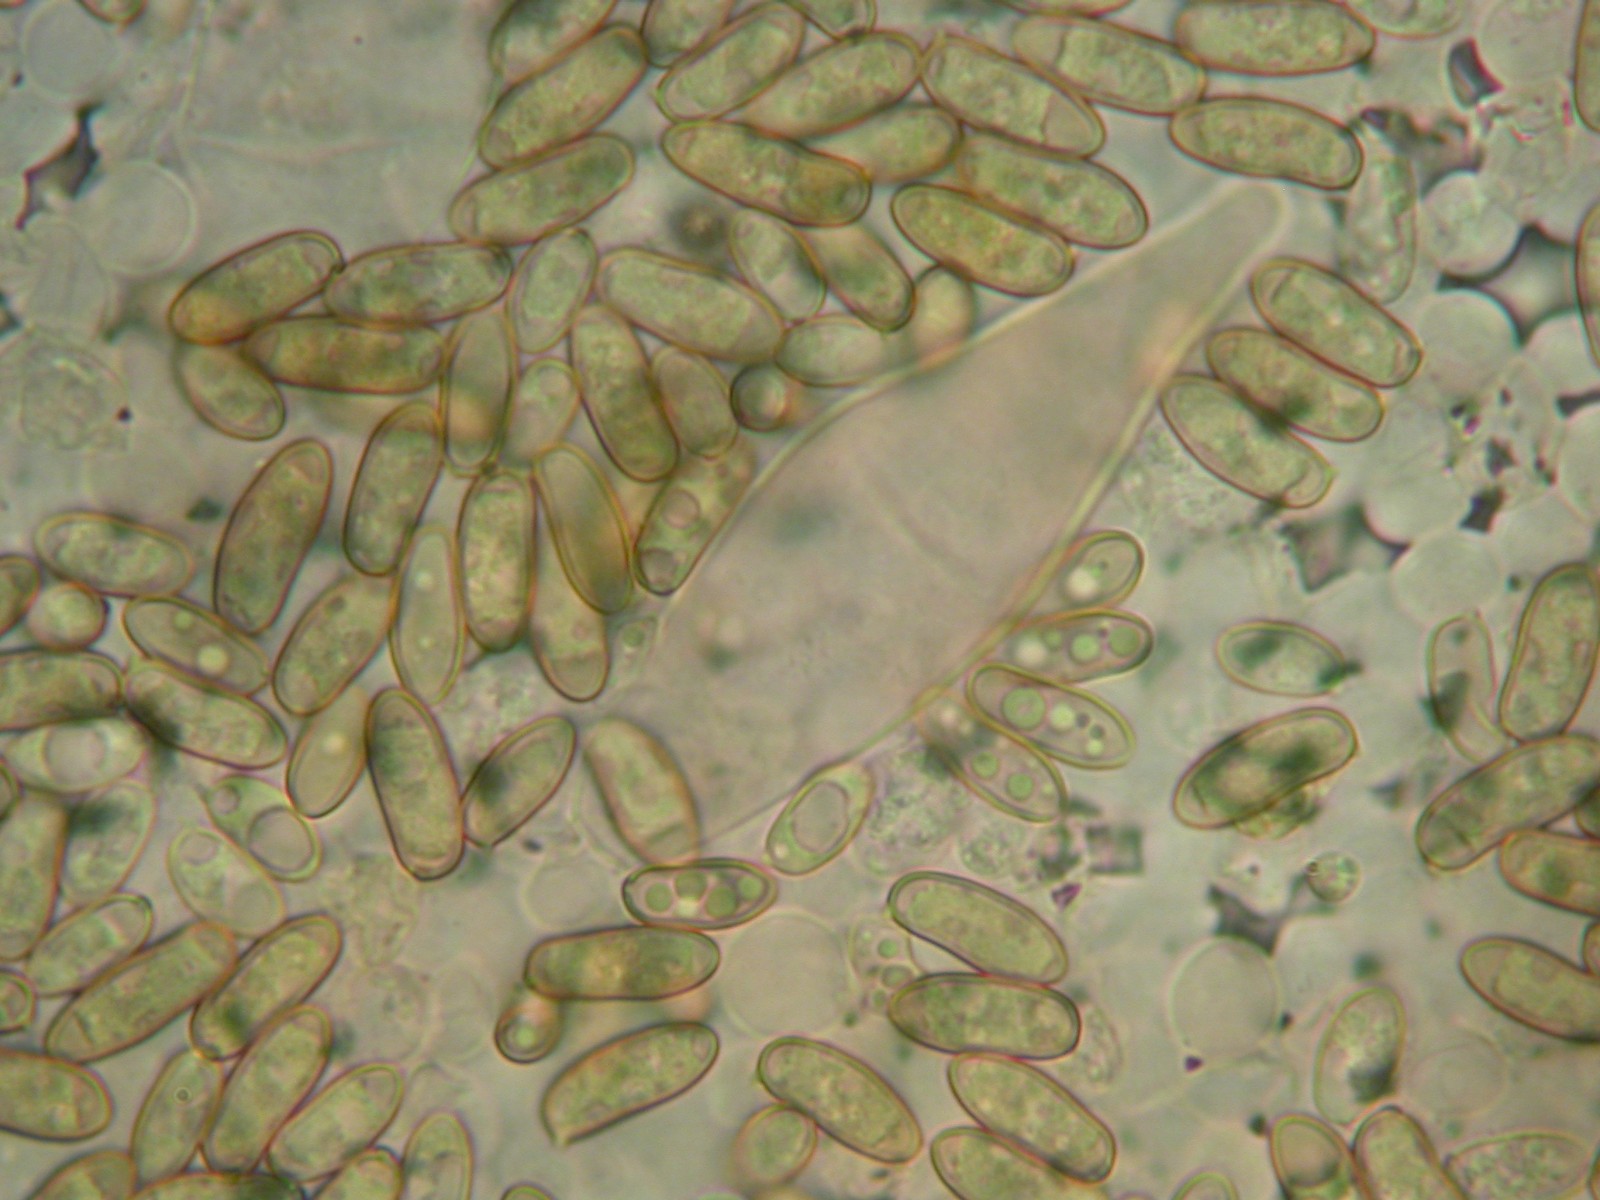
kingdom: Fungi
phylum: Basidiomycota
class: Agaricomycetes
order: Agaricales
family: Inocybaceae
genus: Inocybe
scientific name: Inocybe lacera
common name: laset trævlhat
